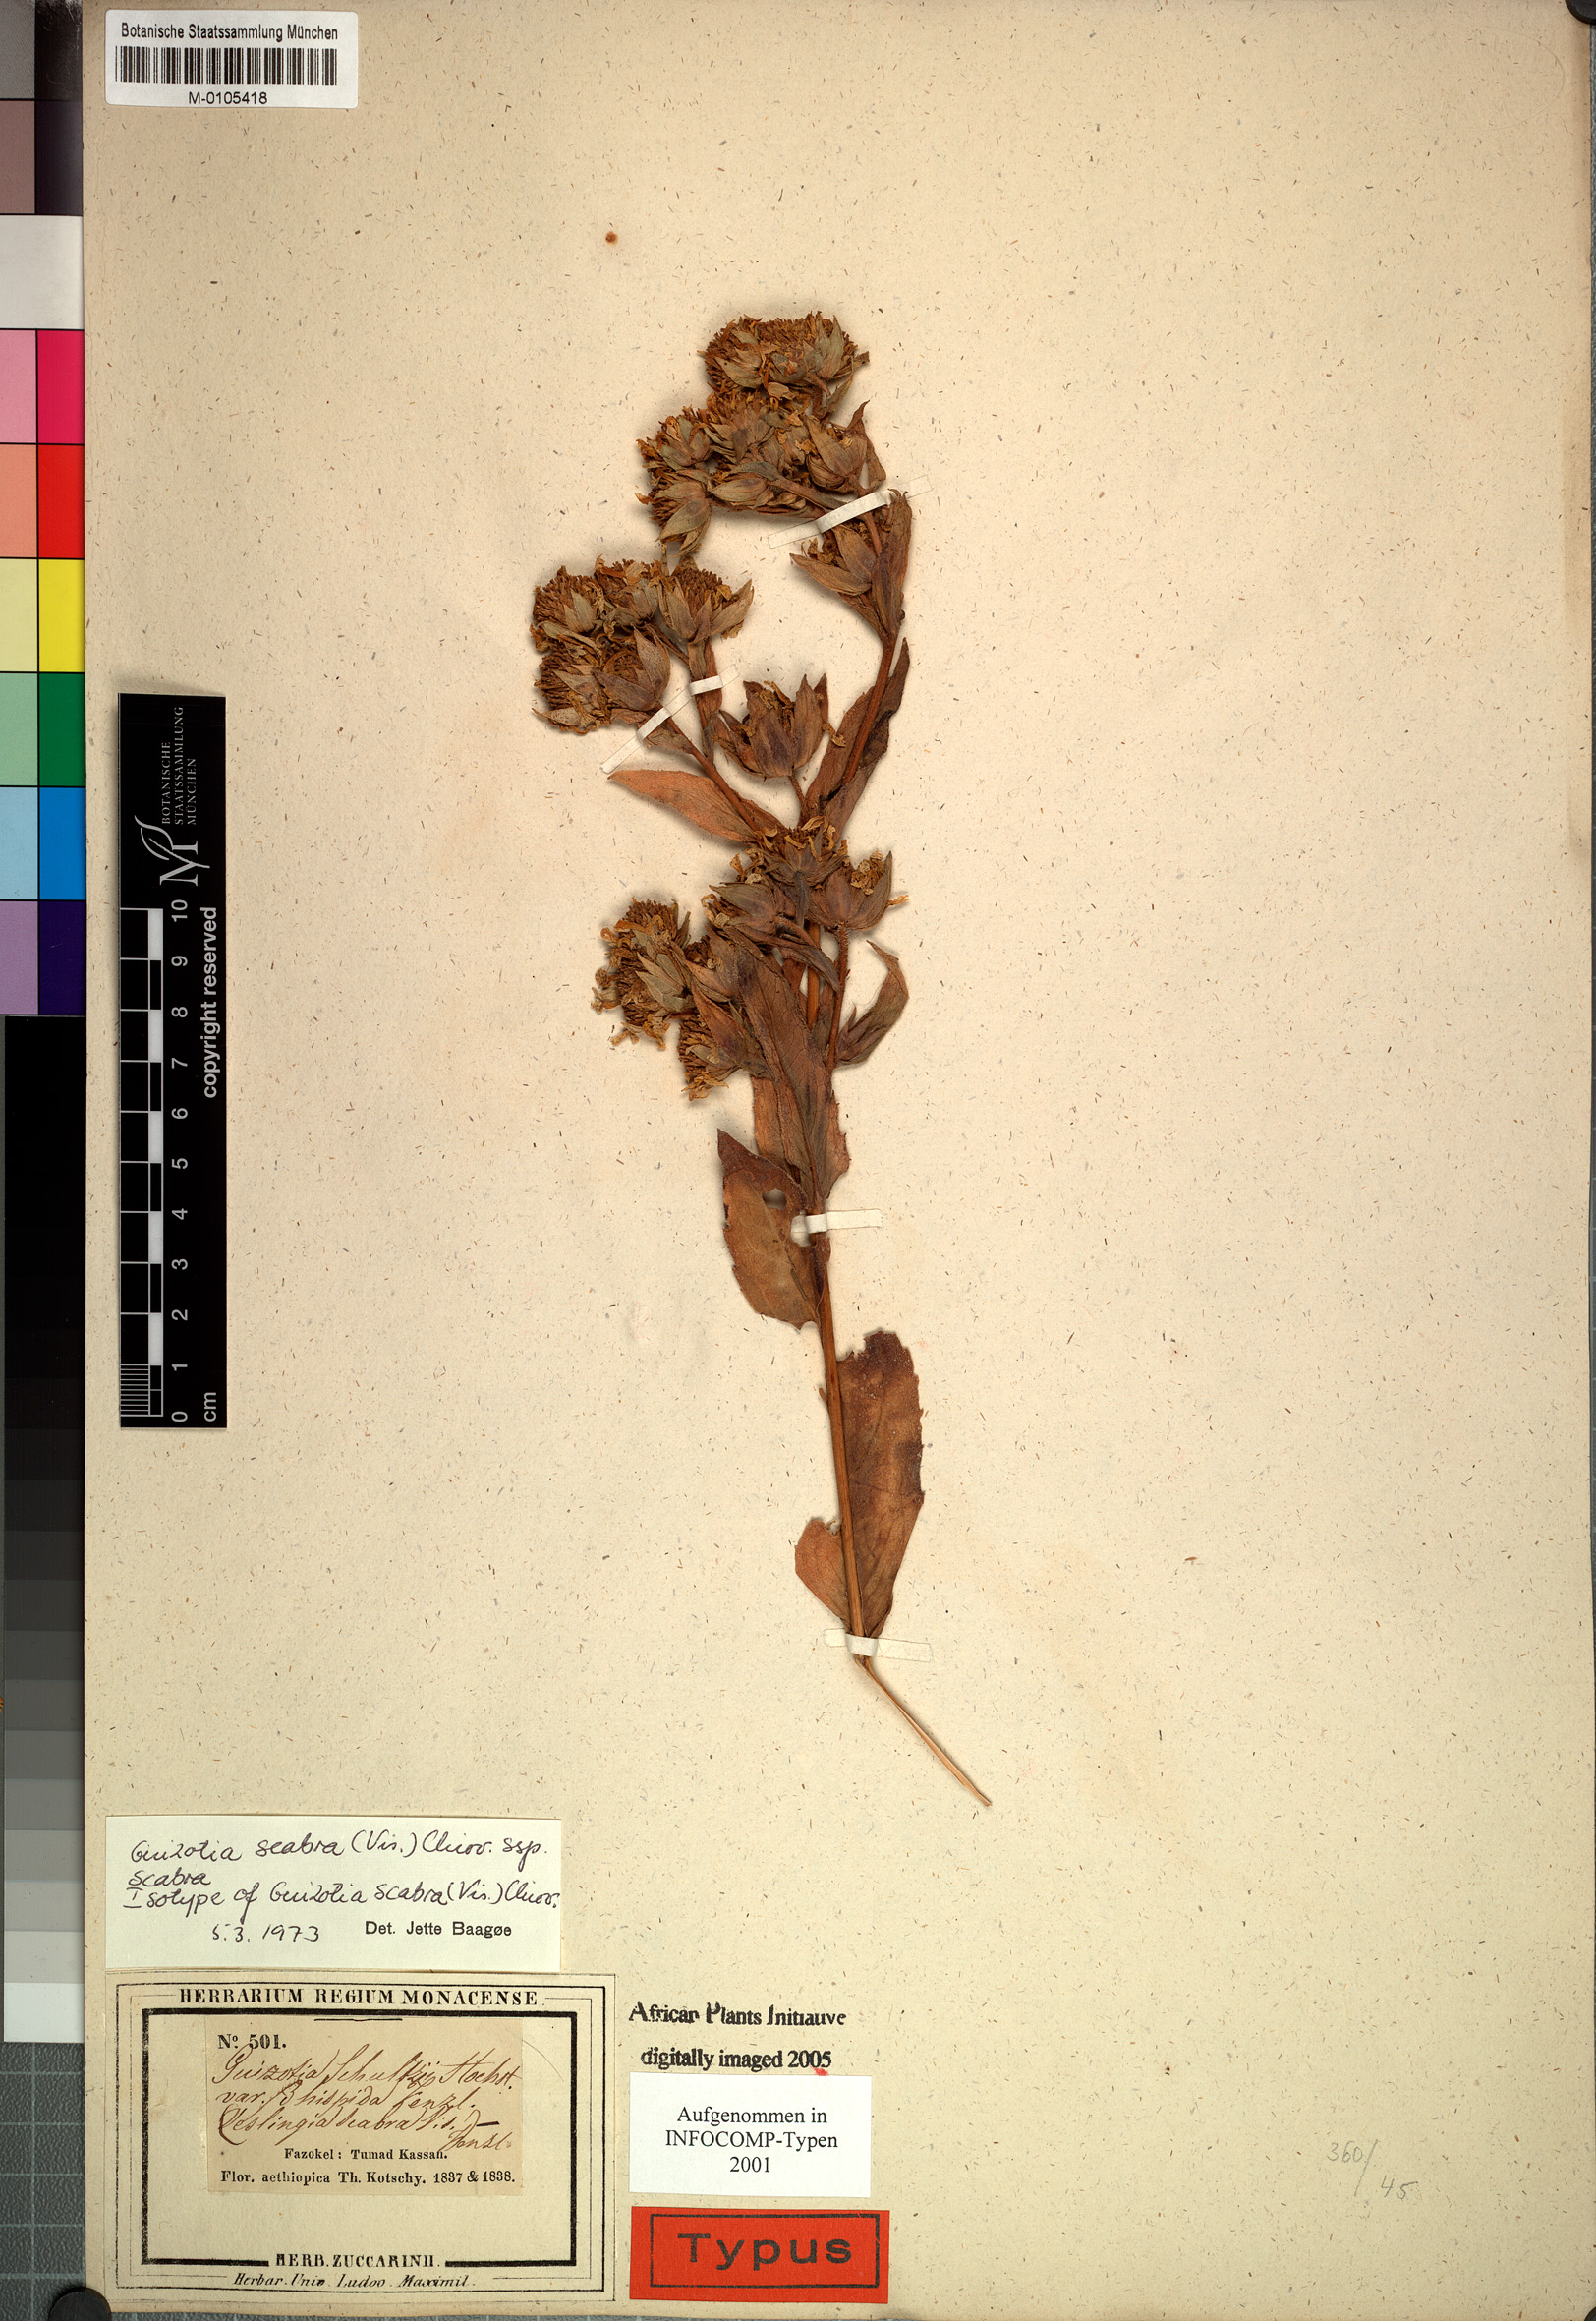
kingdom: Plantae
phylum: Tracheophyta
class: Magnoliopsida
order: Asterales
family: Asteraceae
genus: Guizotia
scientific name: Guizotia scabra
